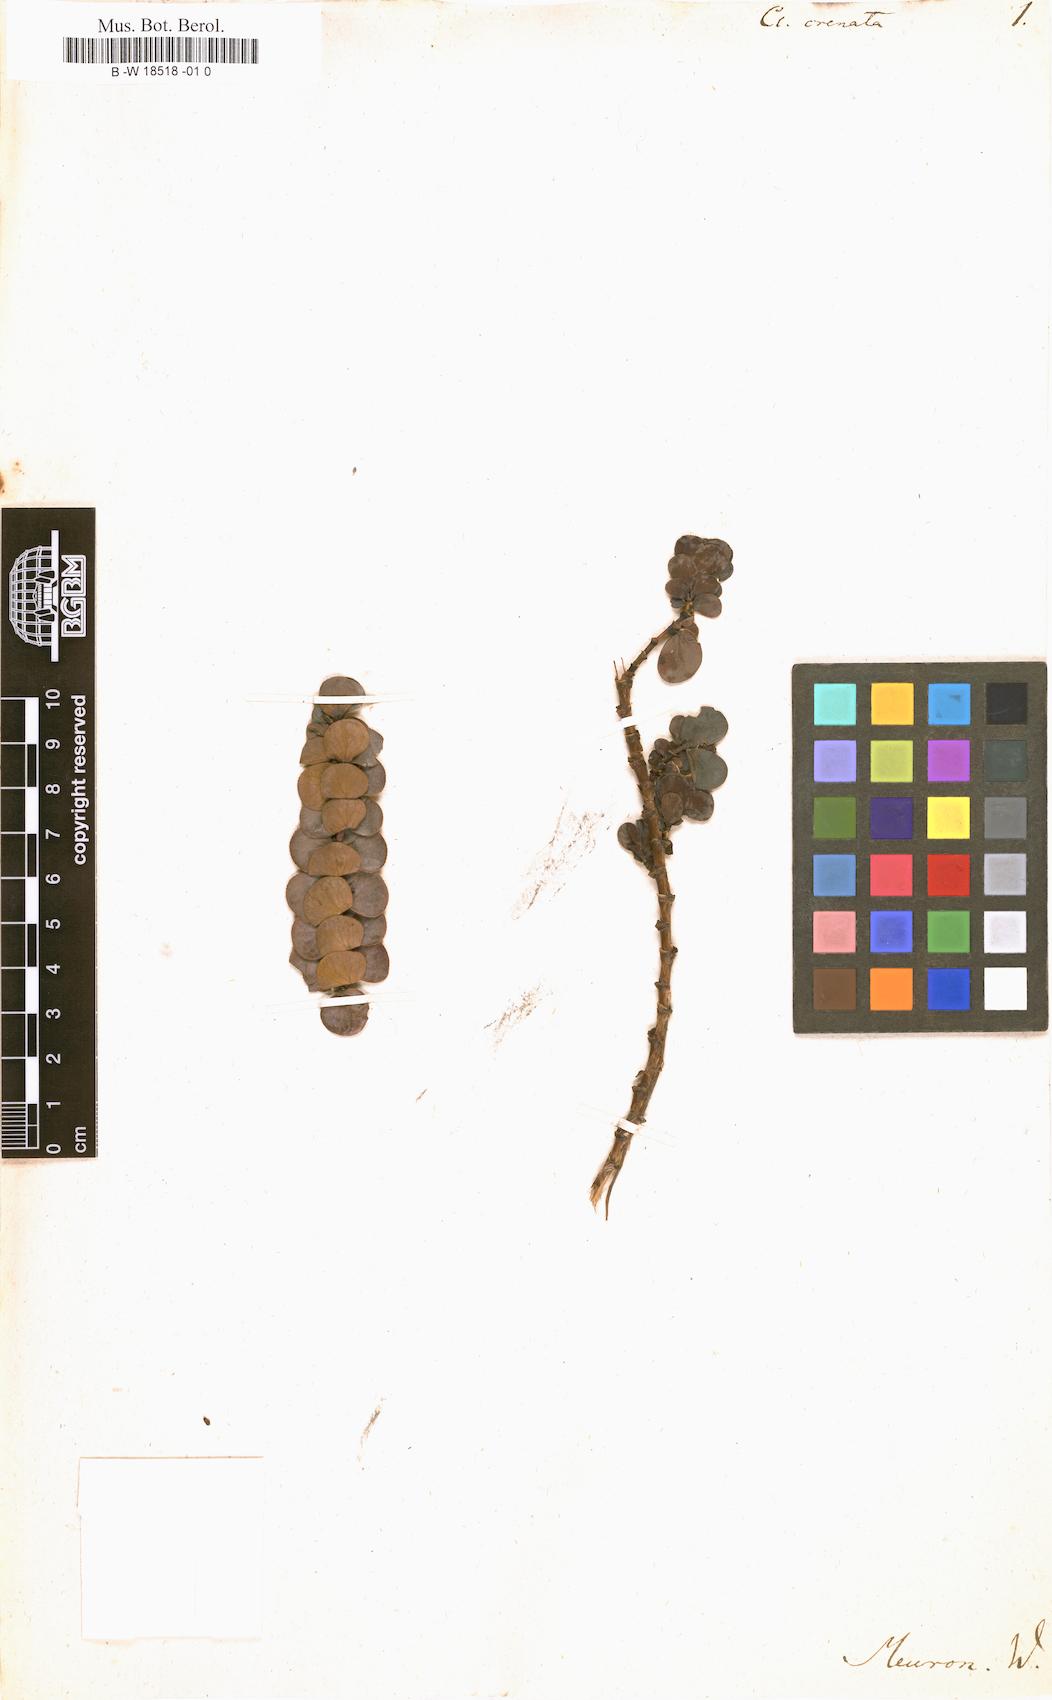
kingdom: Plantae
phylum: Tracheophyta
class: Magnoliopsida
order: Rosales
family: Rosaceae
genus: Cliffortia
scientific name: Cliffortia crenata
